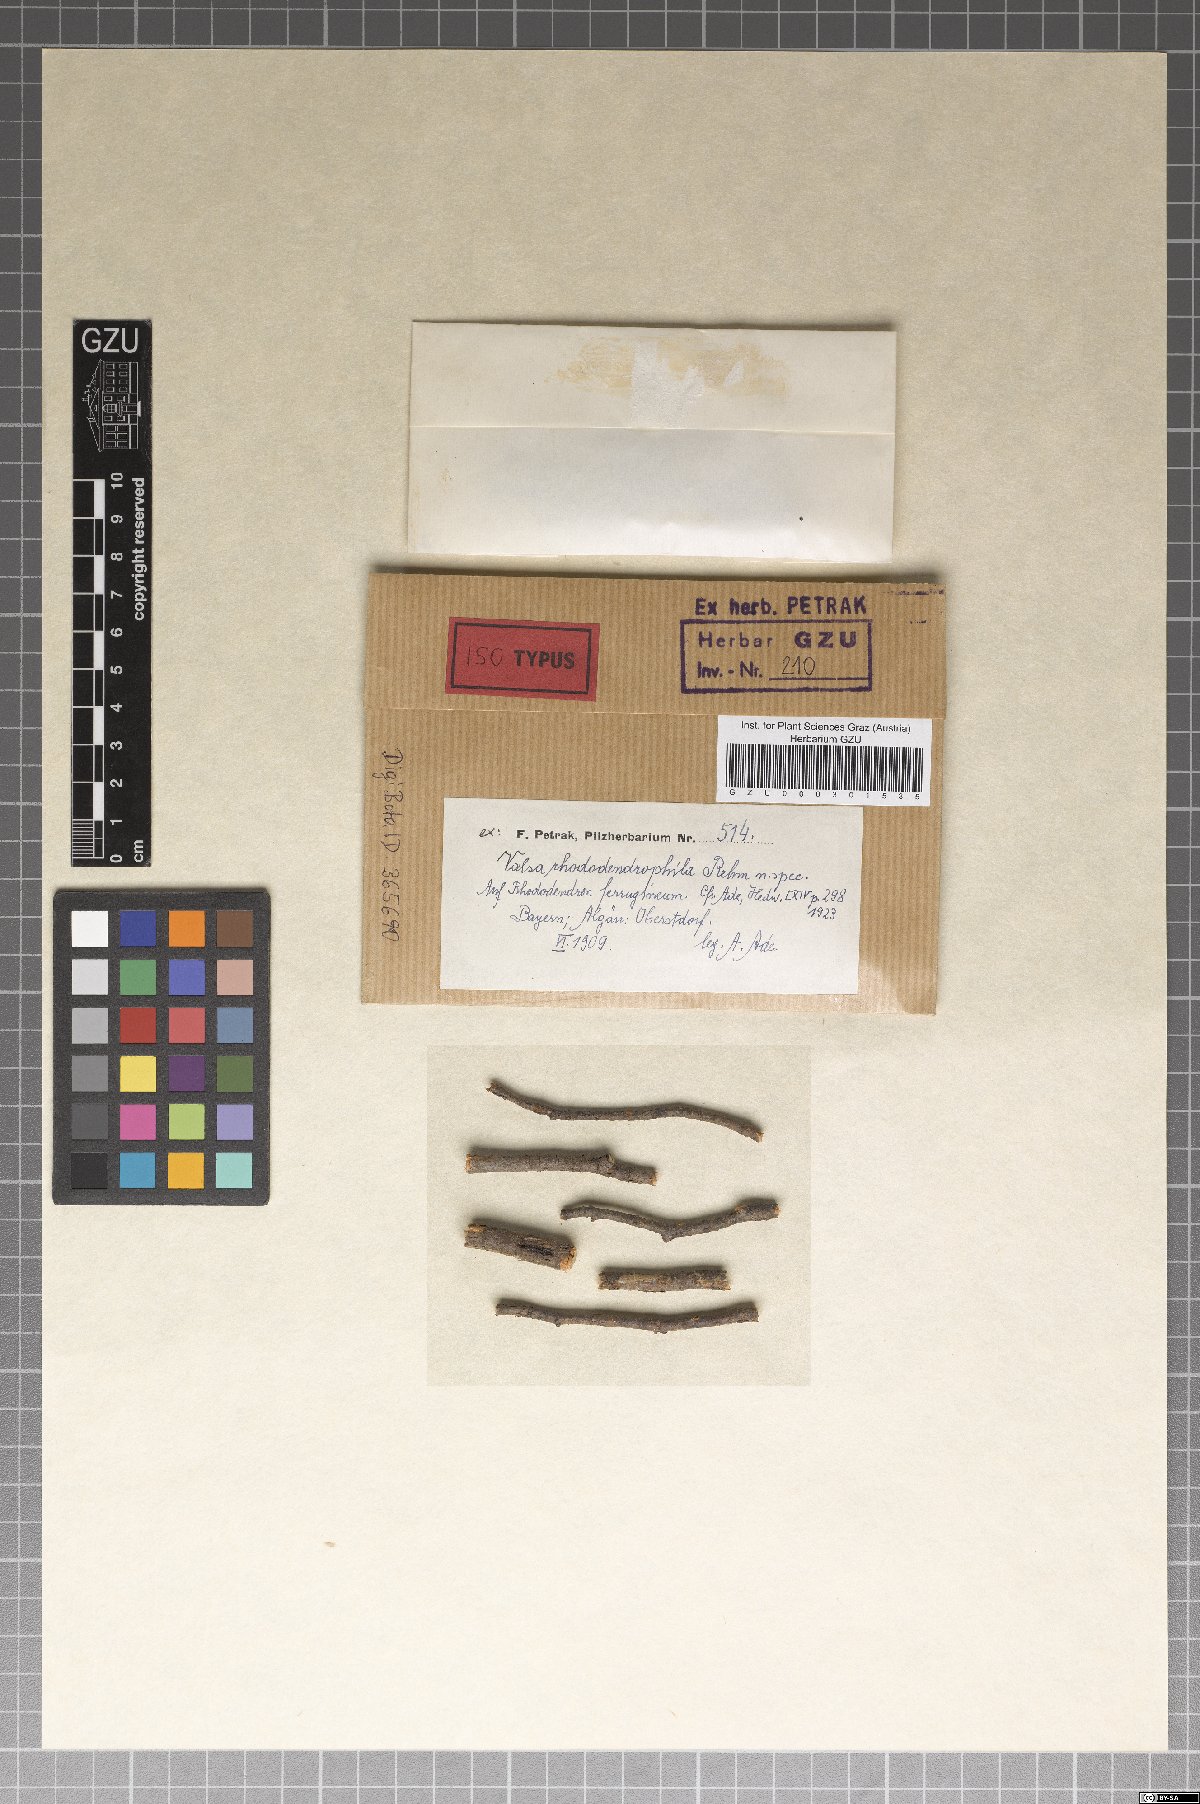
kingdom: Fungi
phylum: Ascomycota
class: Sordariomycetes
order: Diaporthales
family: Valsaceae
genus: Valsa
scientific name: Valsa rhododendrophila
